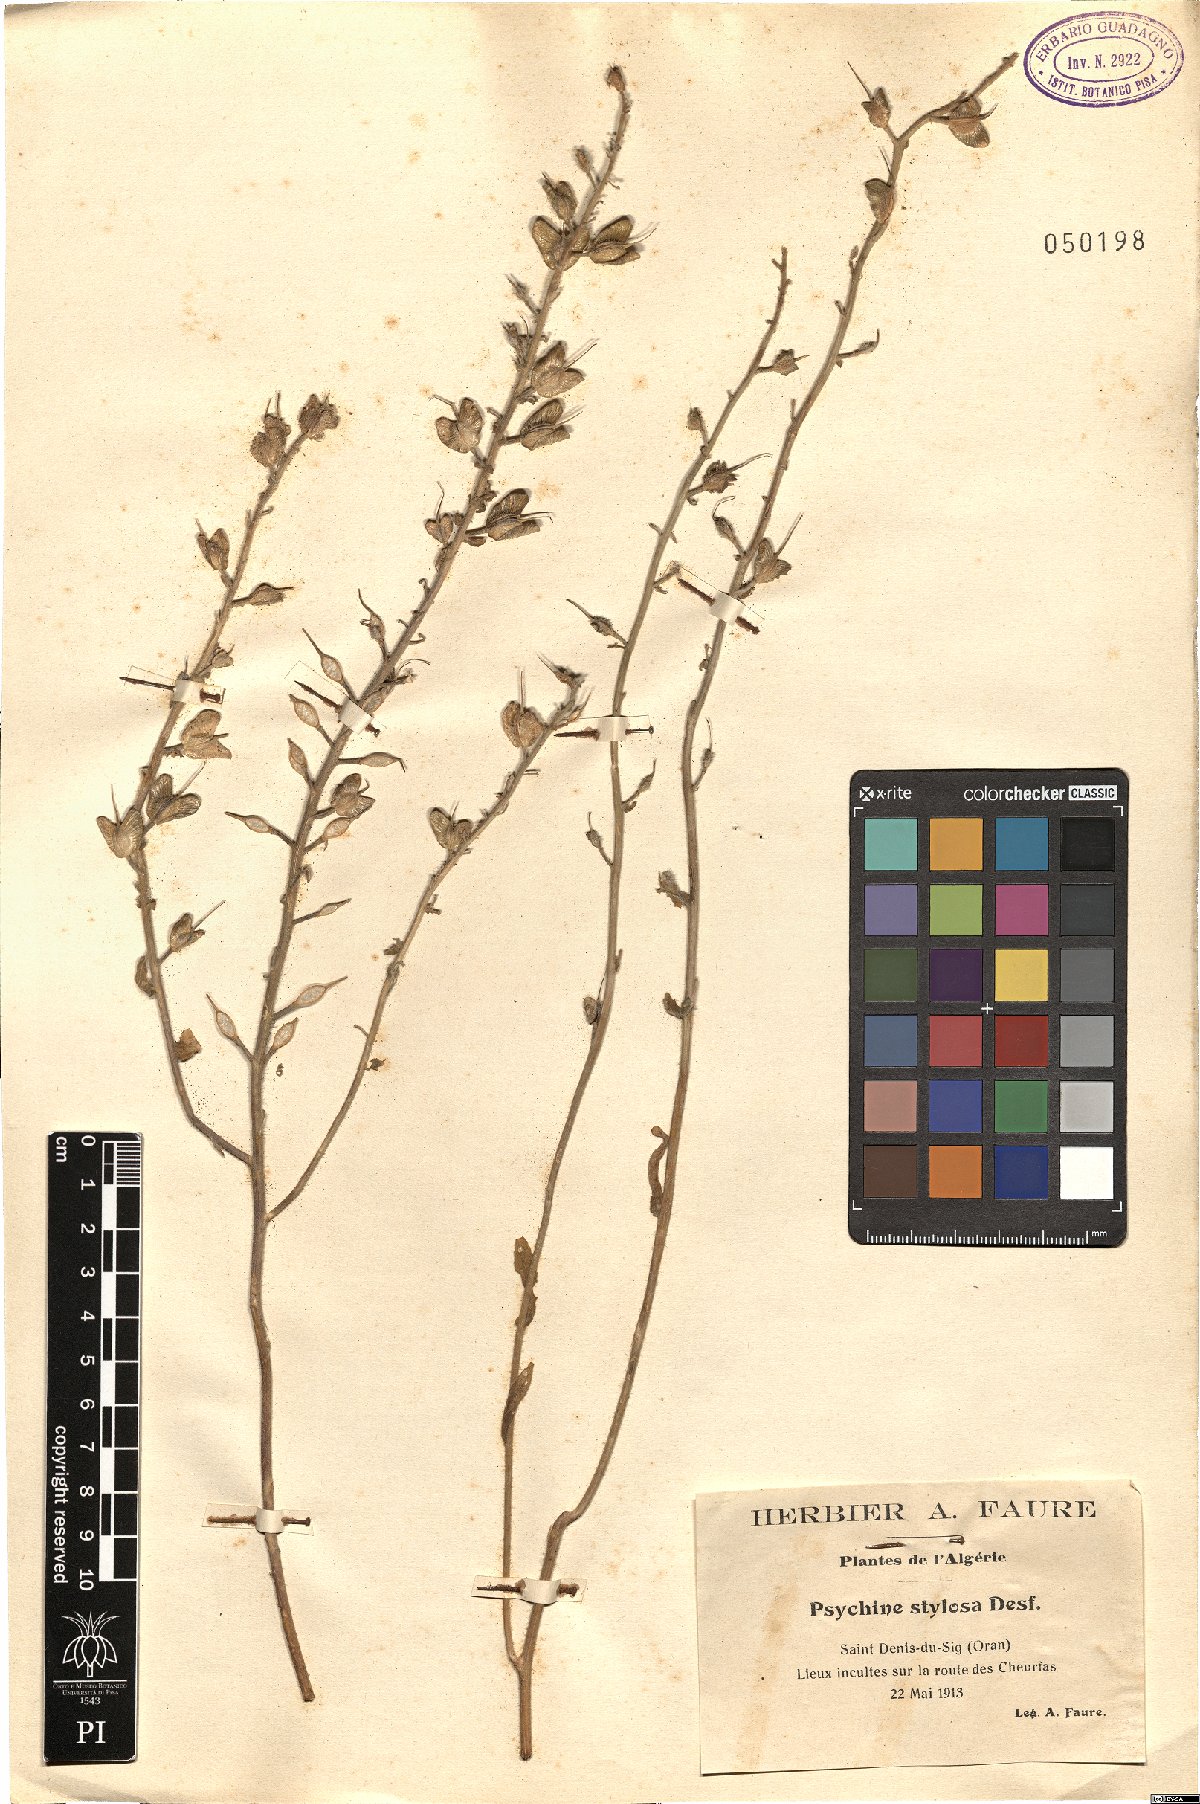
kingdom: Plantae
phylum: Tracheophyta
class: Magnoliopsida
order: Brassicales
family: Brassicaceae
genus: Psychine
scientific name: Psychine stylosa
